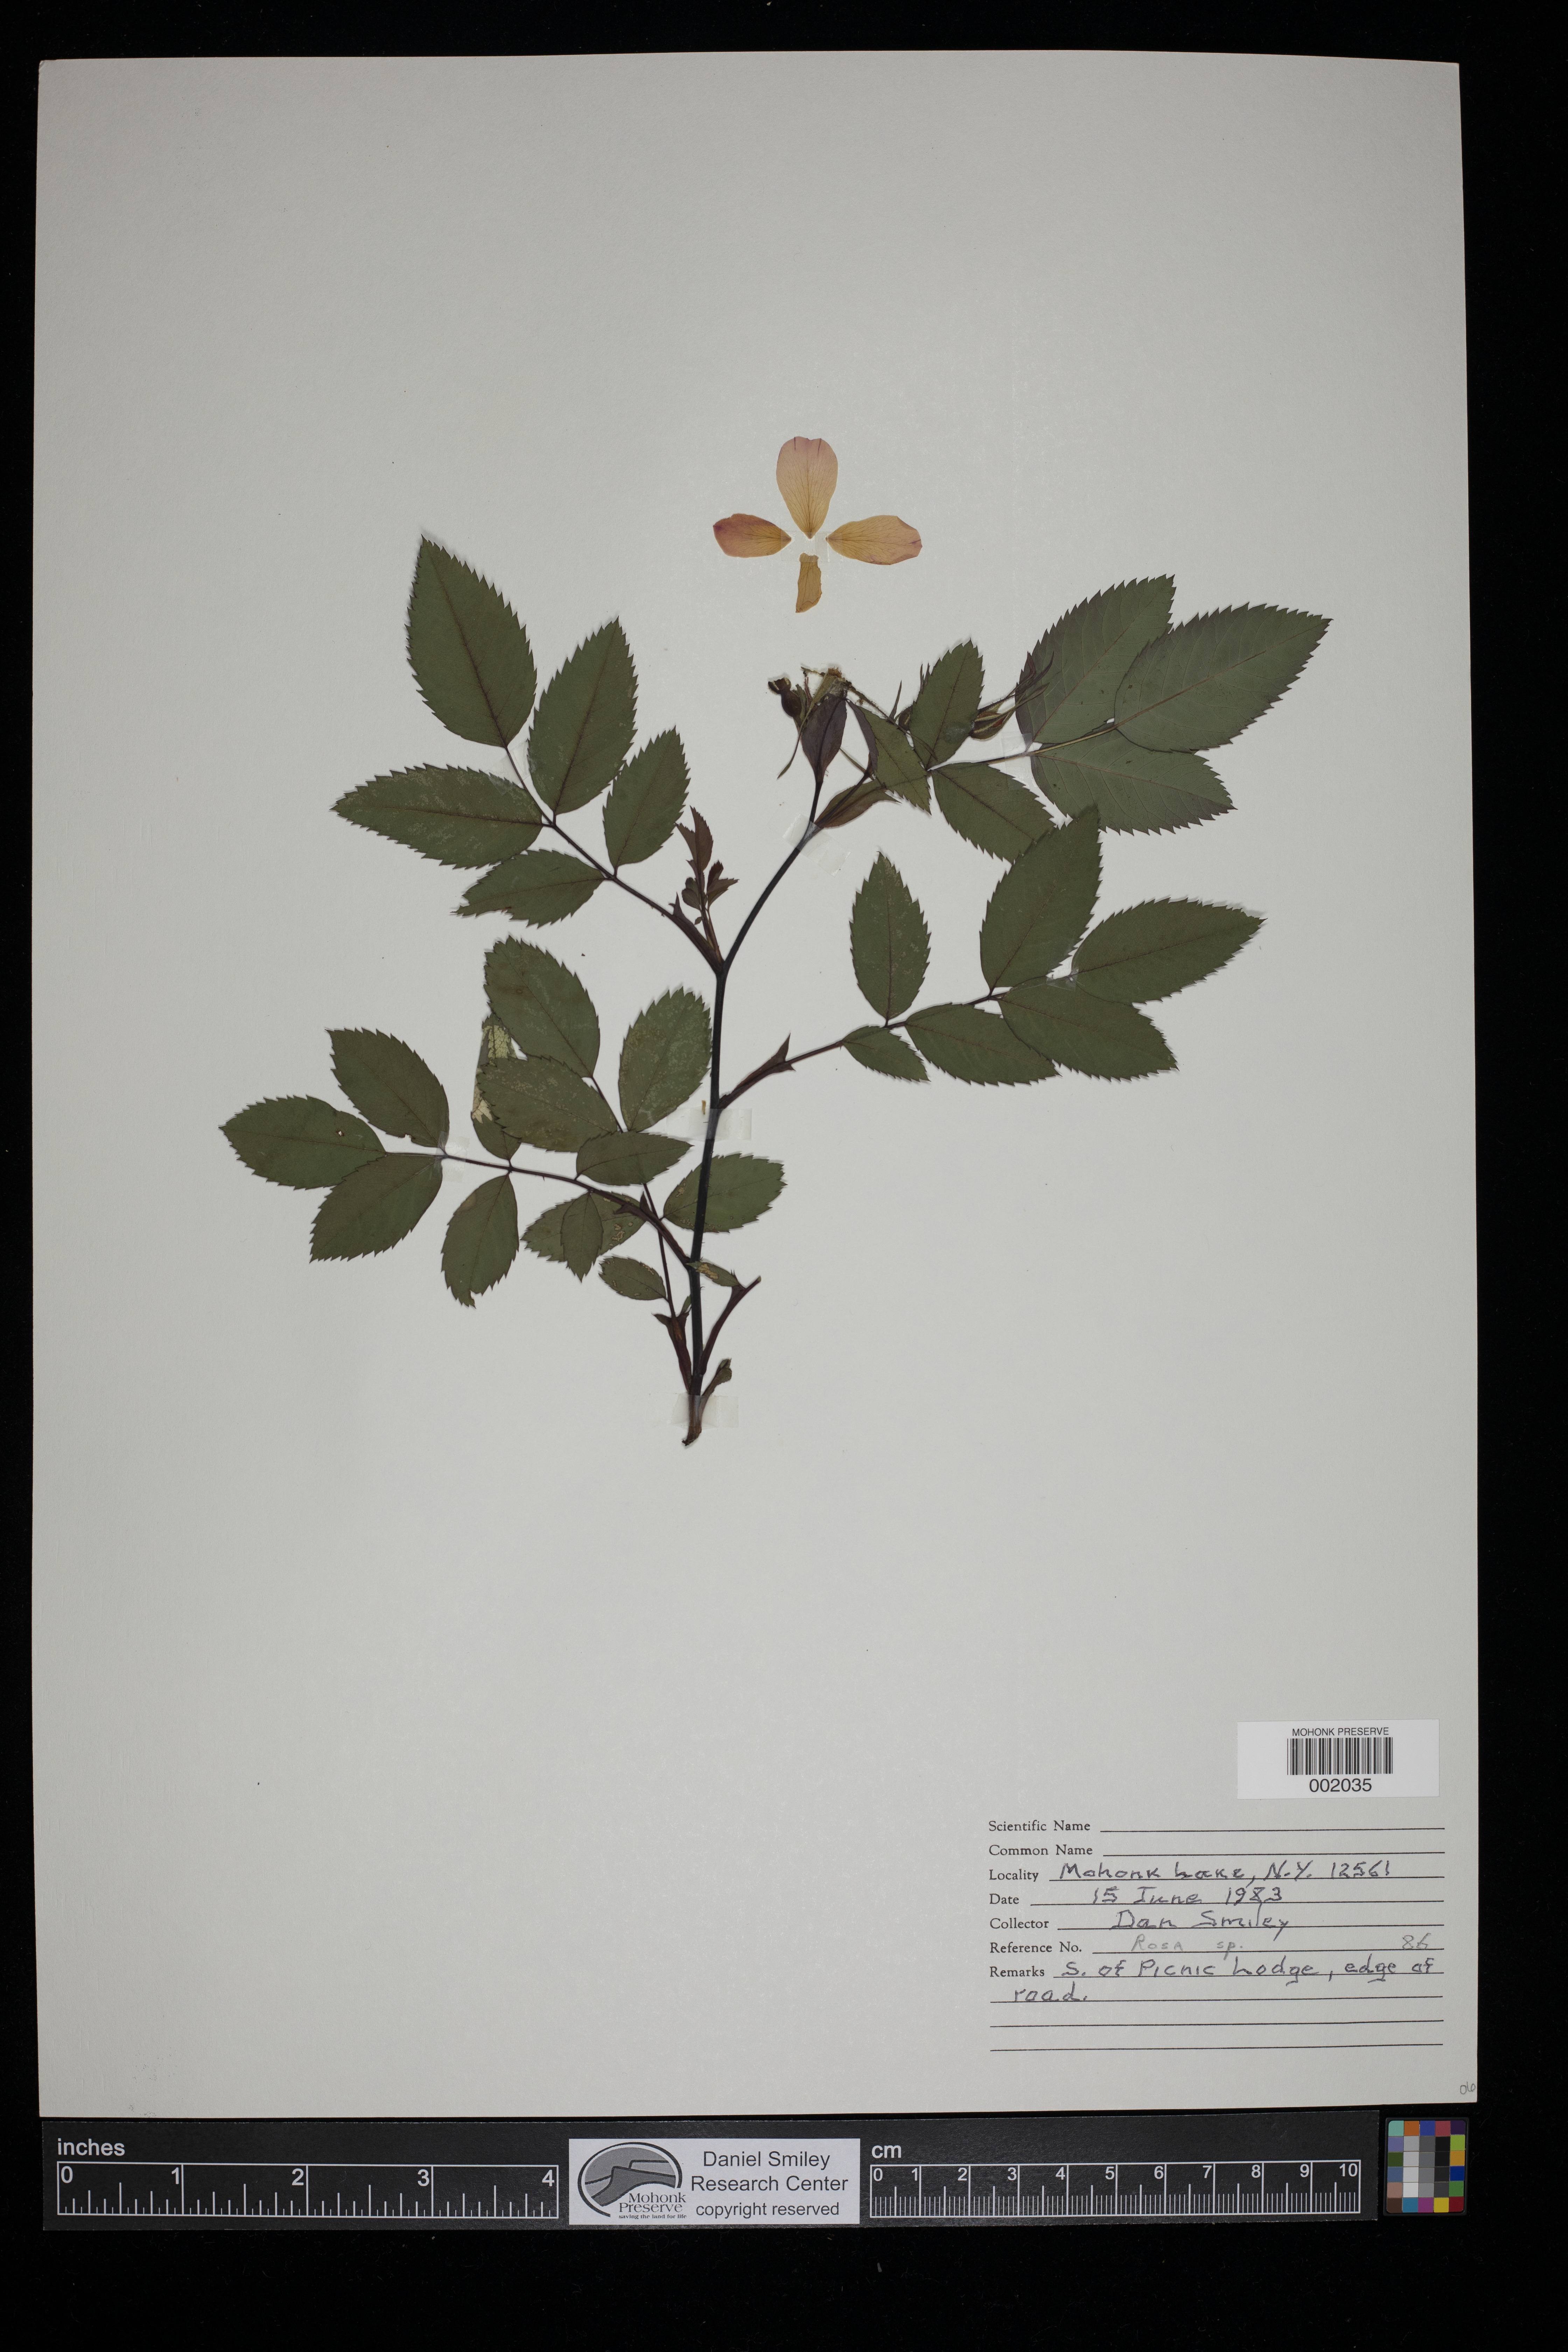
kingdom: Plantae
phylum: Tracheophyta
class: Magnoliopsida
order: Rosales
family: Rosaceae
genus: Rosa
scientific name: Rosa
